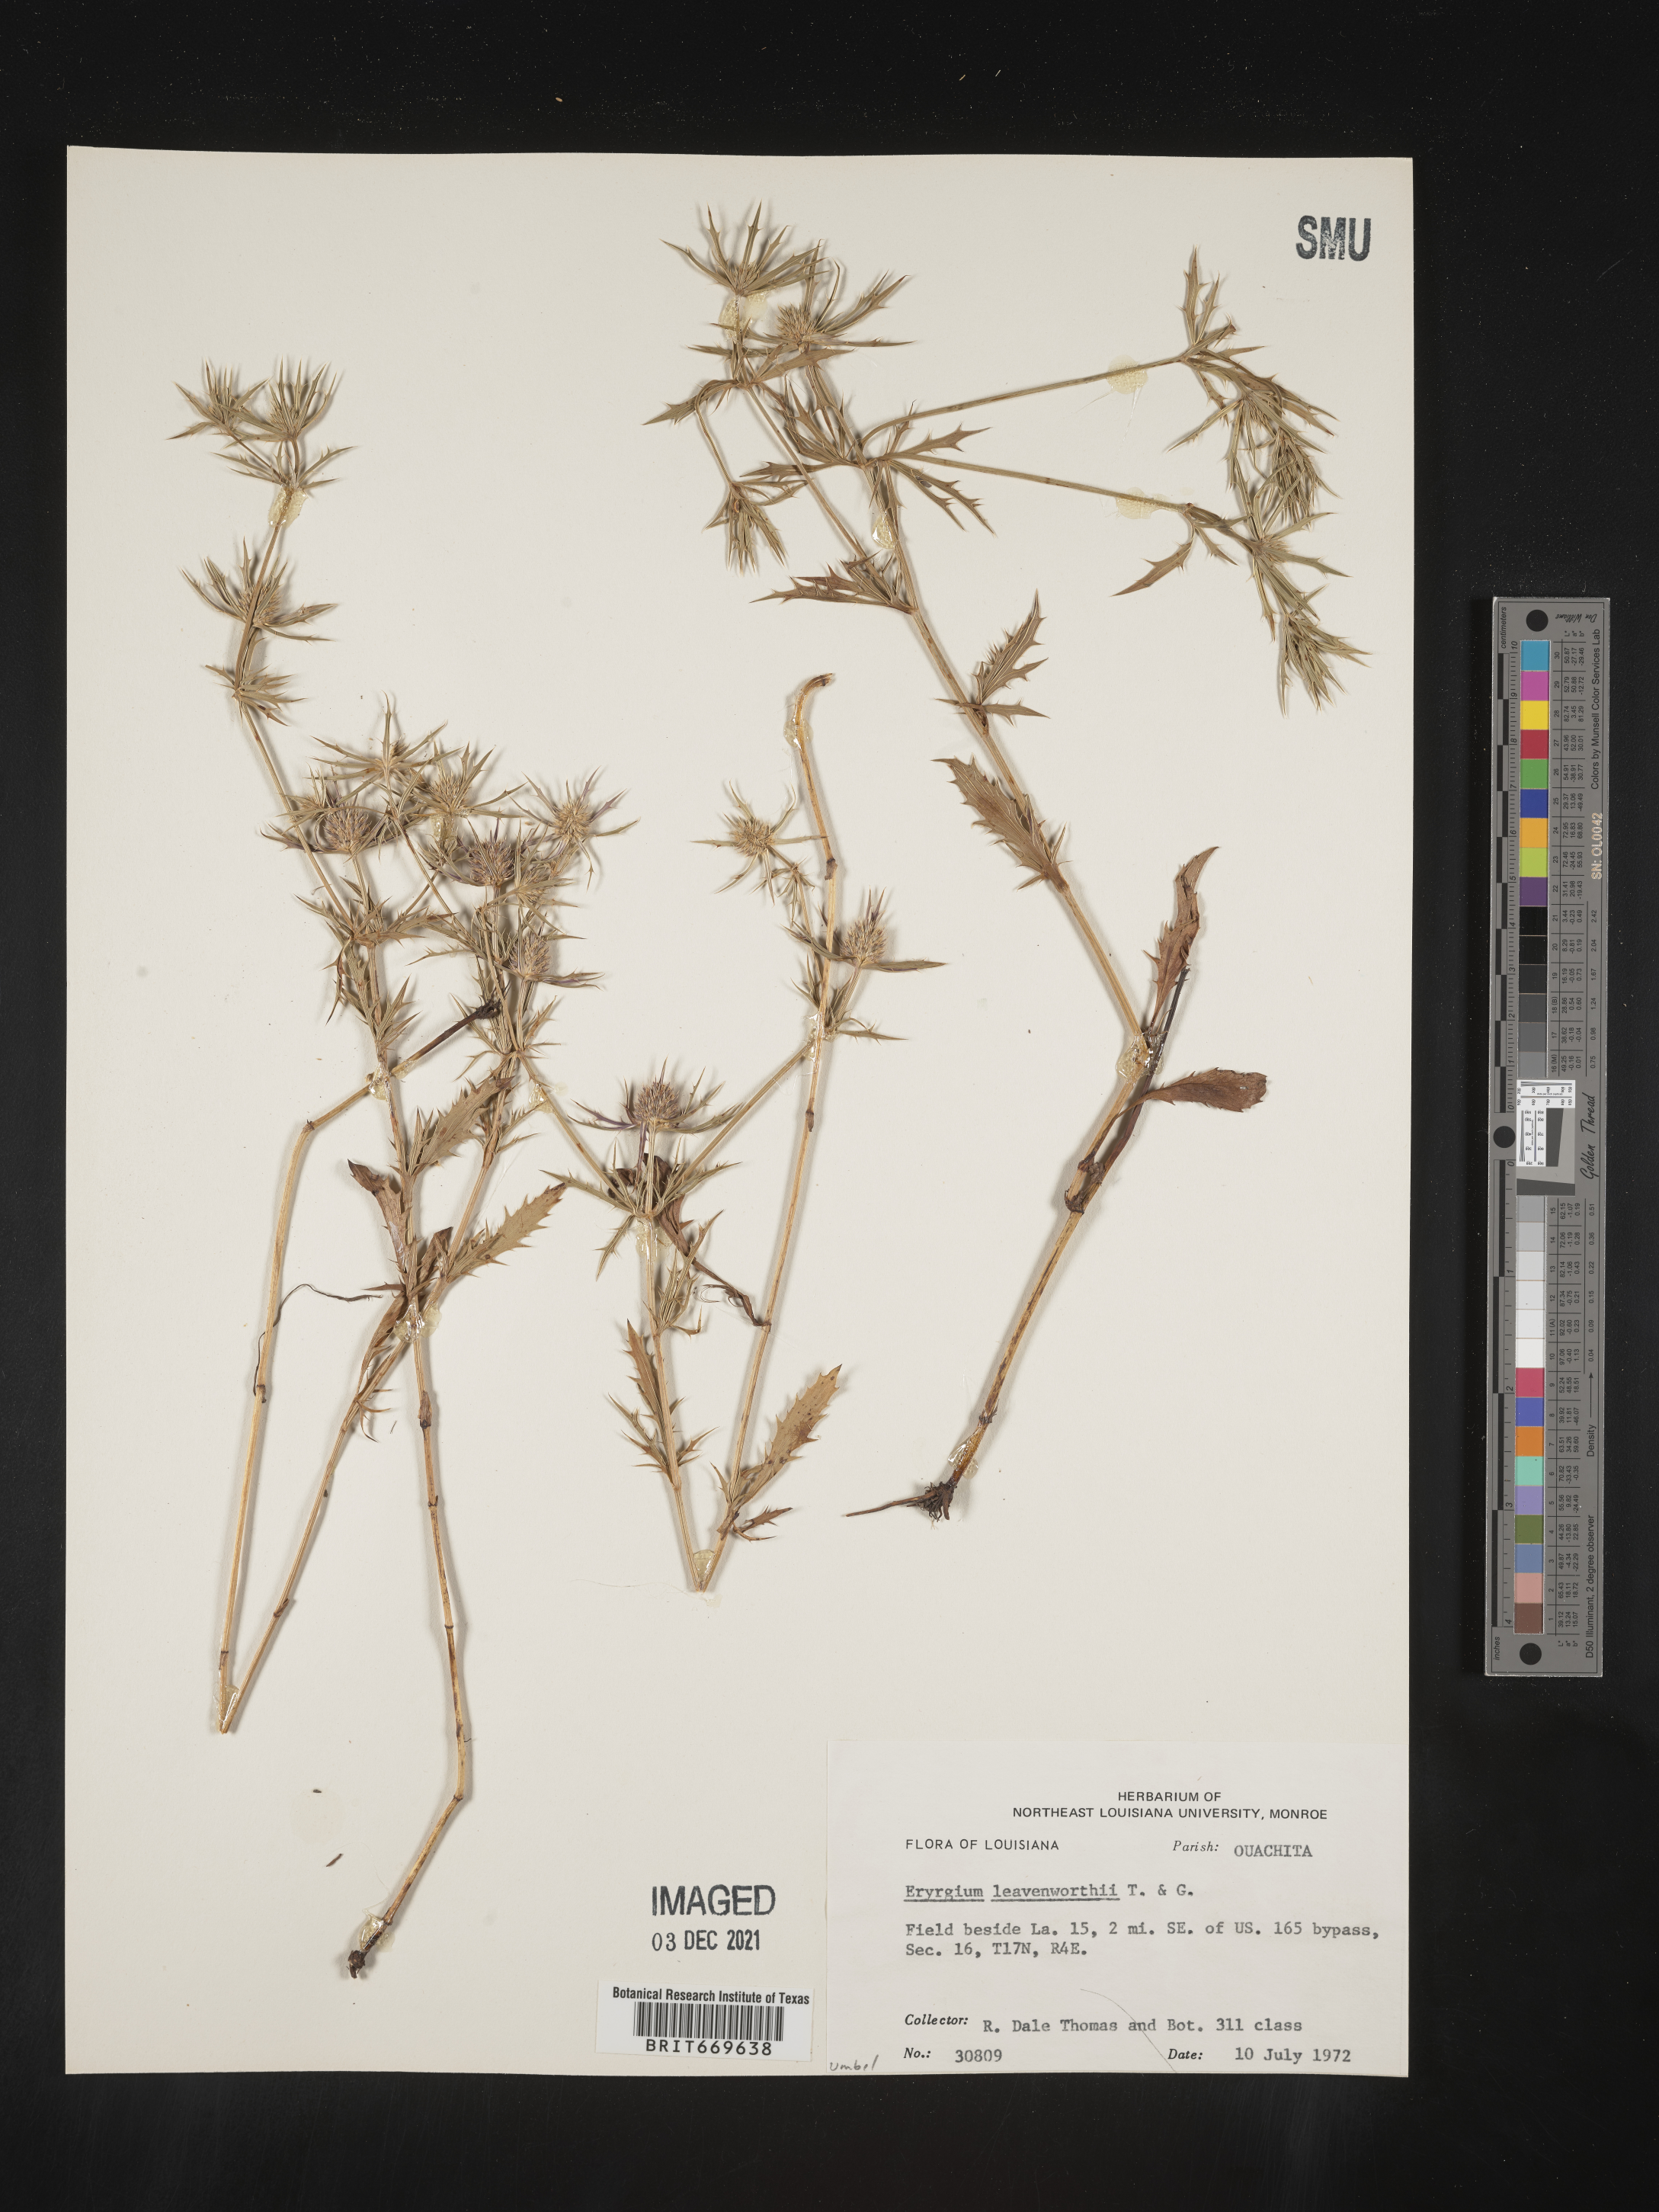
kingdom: Plantae
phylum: Tracheophyta
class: Magnoliopsida
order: Apiales
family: Apiaceae
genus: Eryngium
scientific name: Eryngium
